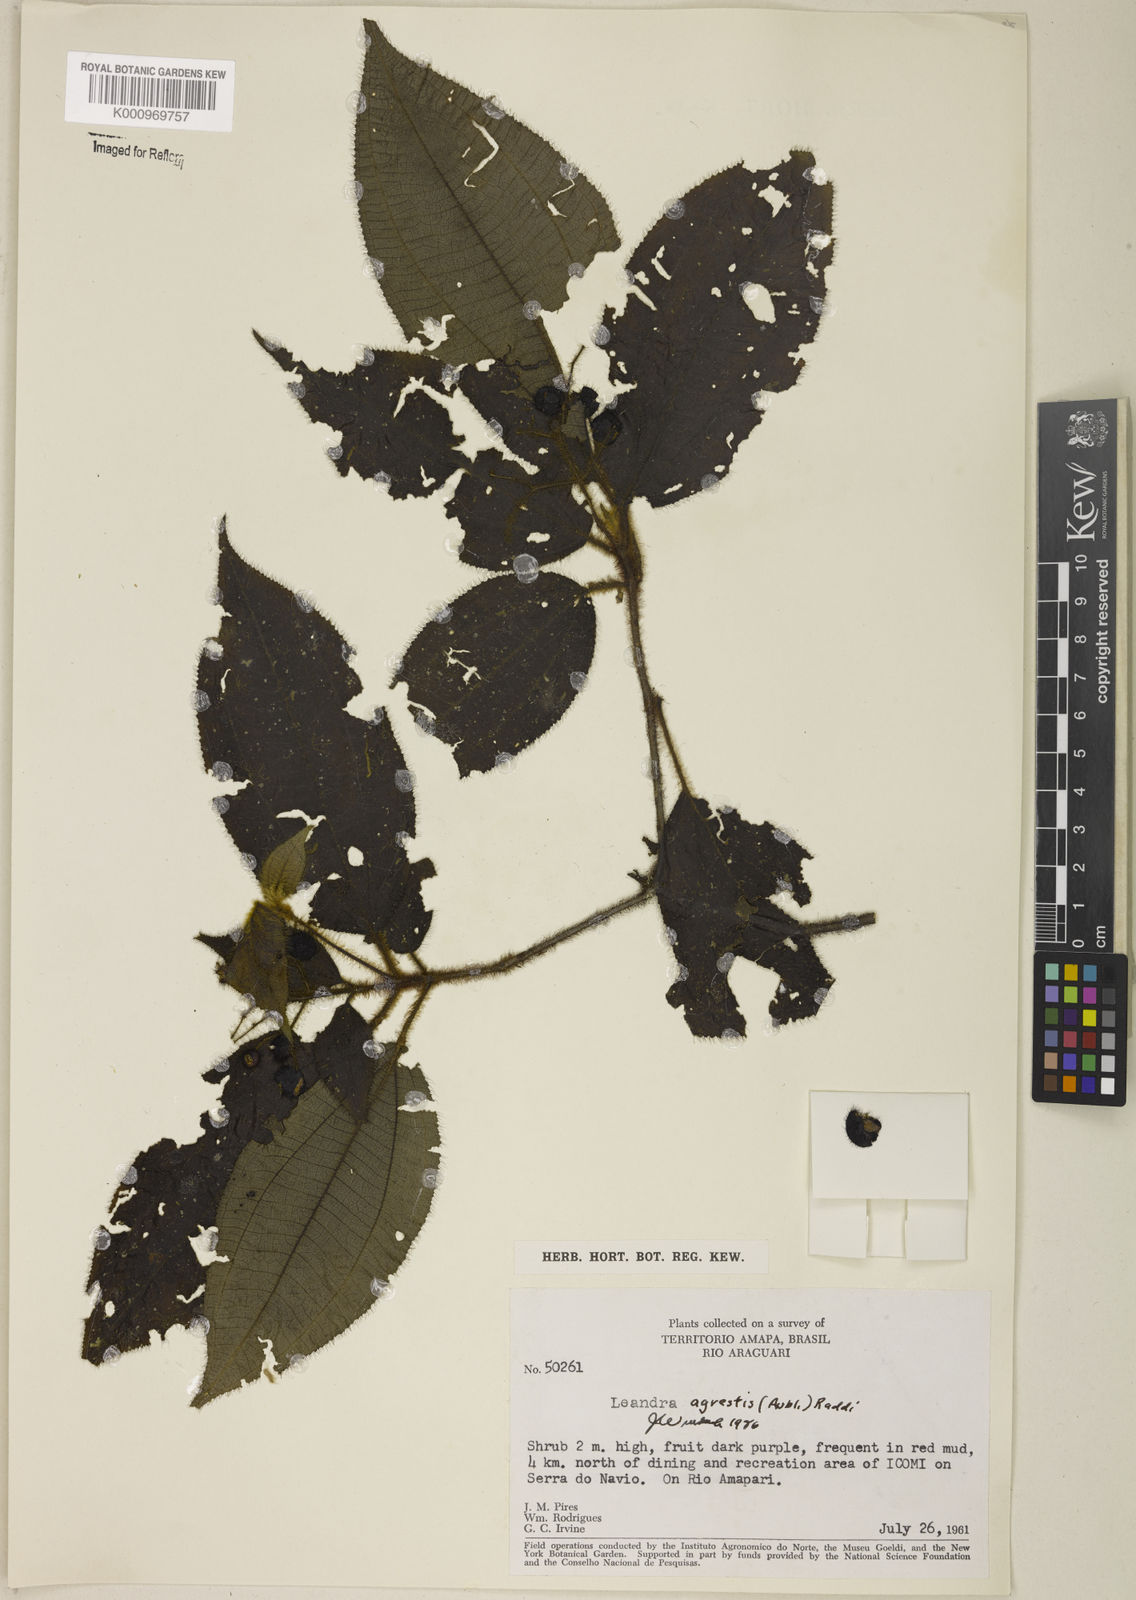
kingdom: Plantae
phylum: Tracheophyta
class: Magnoliopsida
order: Myrtales
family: Melastomataceae
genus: Miconia
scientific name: Miconia agrestis
